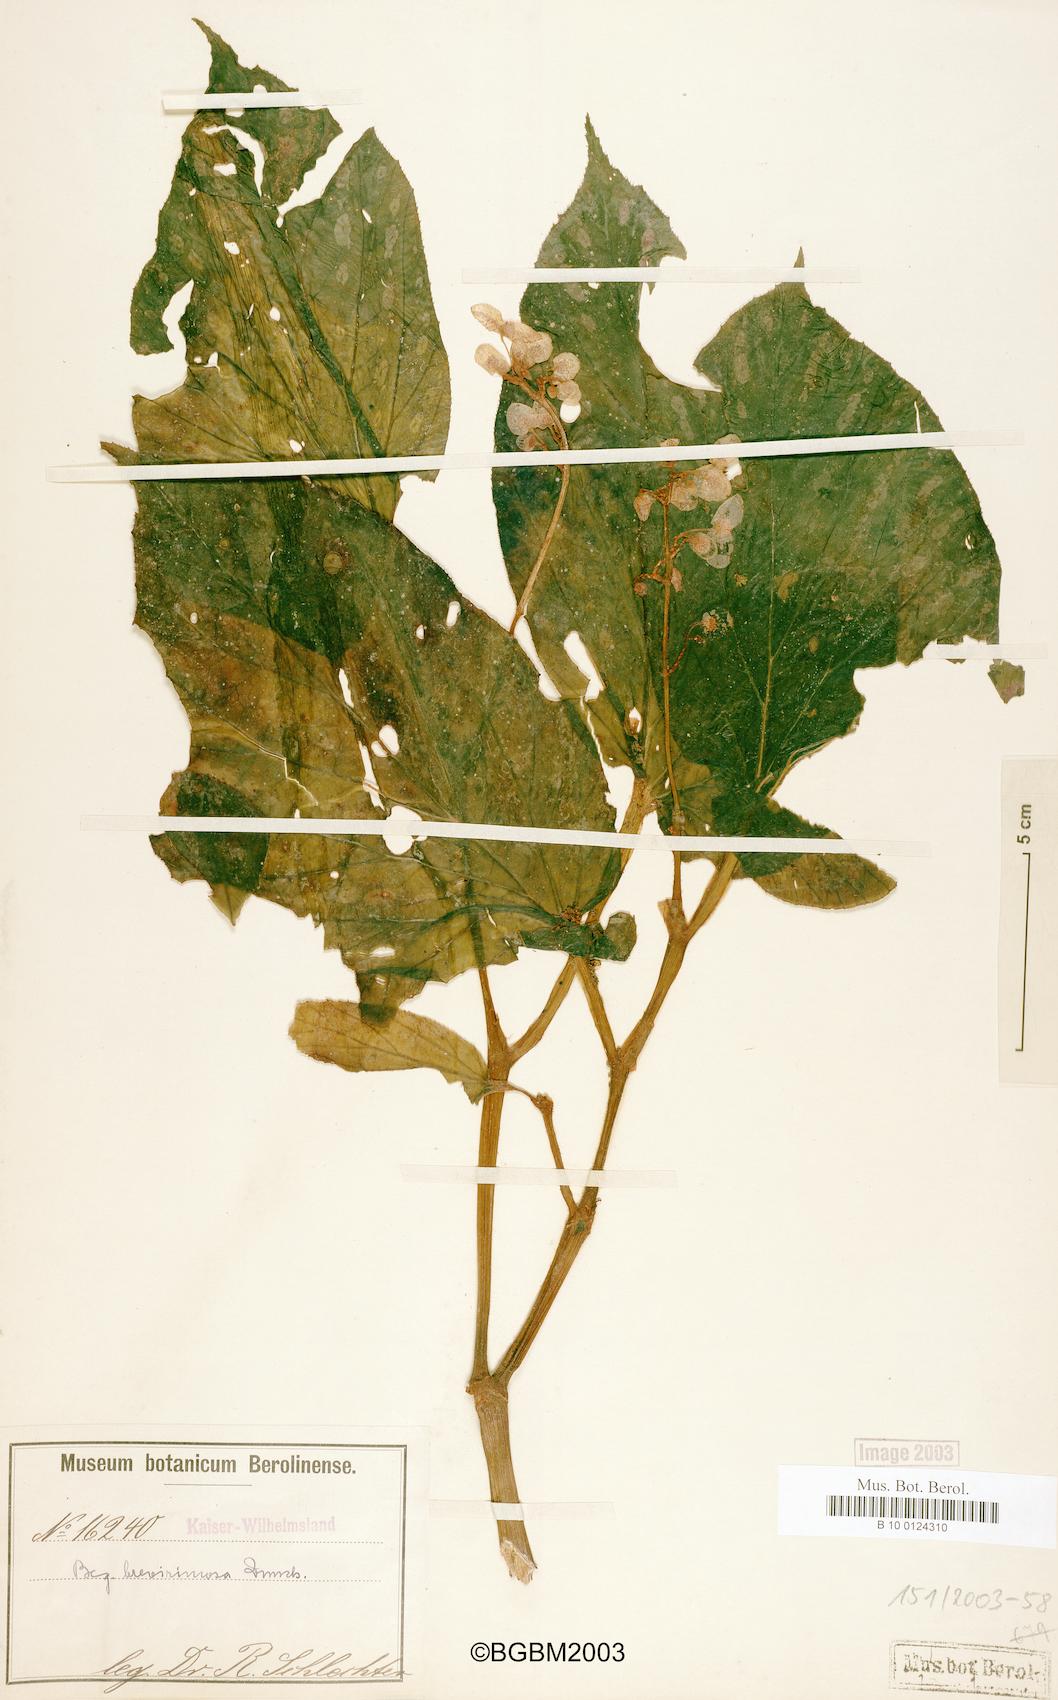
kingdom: Plantae
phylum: Tracheophyta
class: Magnoliopsida
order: Cucurbitales
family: Begoniaceae
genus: Begonia
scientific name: Begonia brevirimosa
